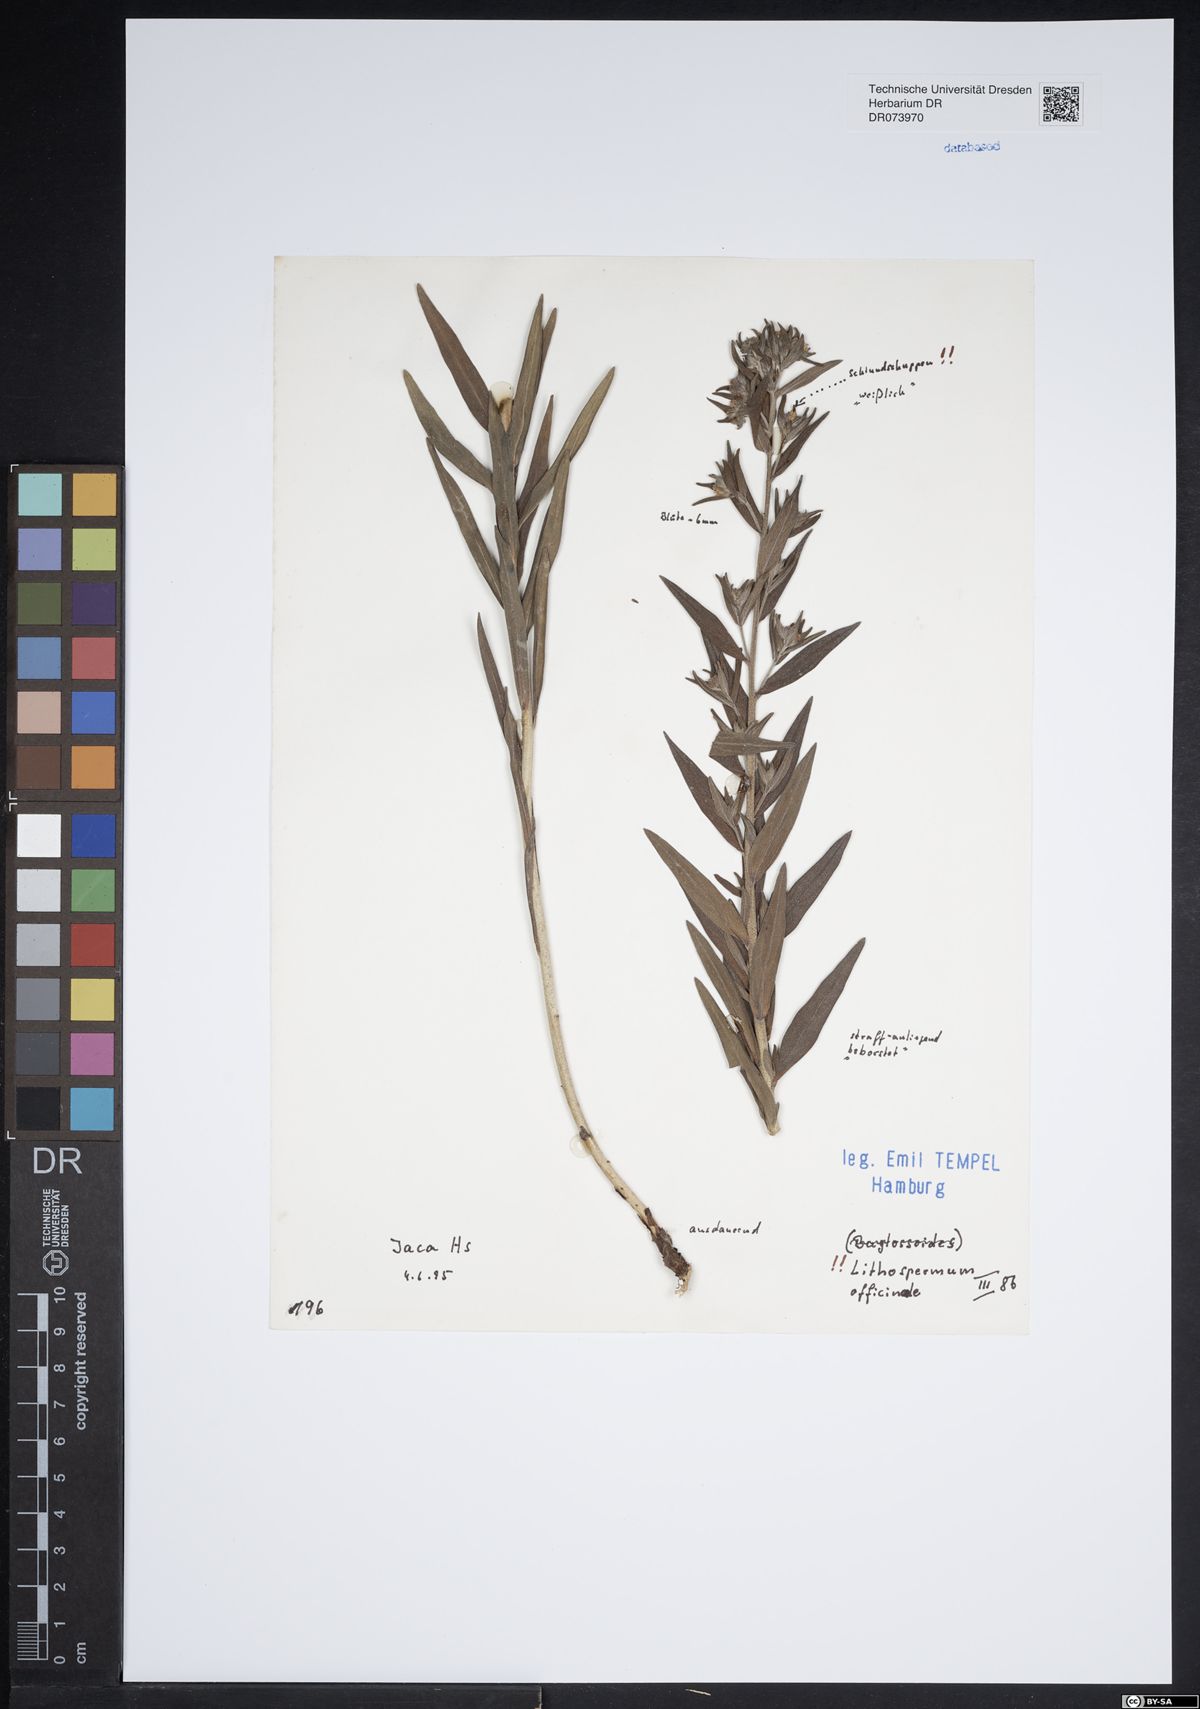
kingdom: Plantae
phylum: Tracheophyta
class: Magnoliopsida
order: Boraginales
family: Boraginaceae
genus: Lithospermum
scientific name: Lithospermum officinale
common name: Common gromwell
